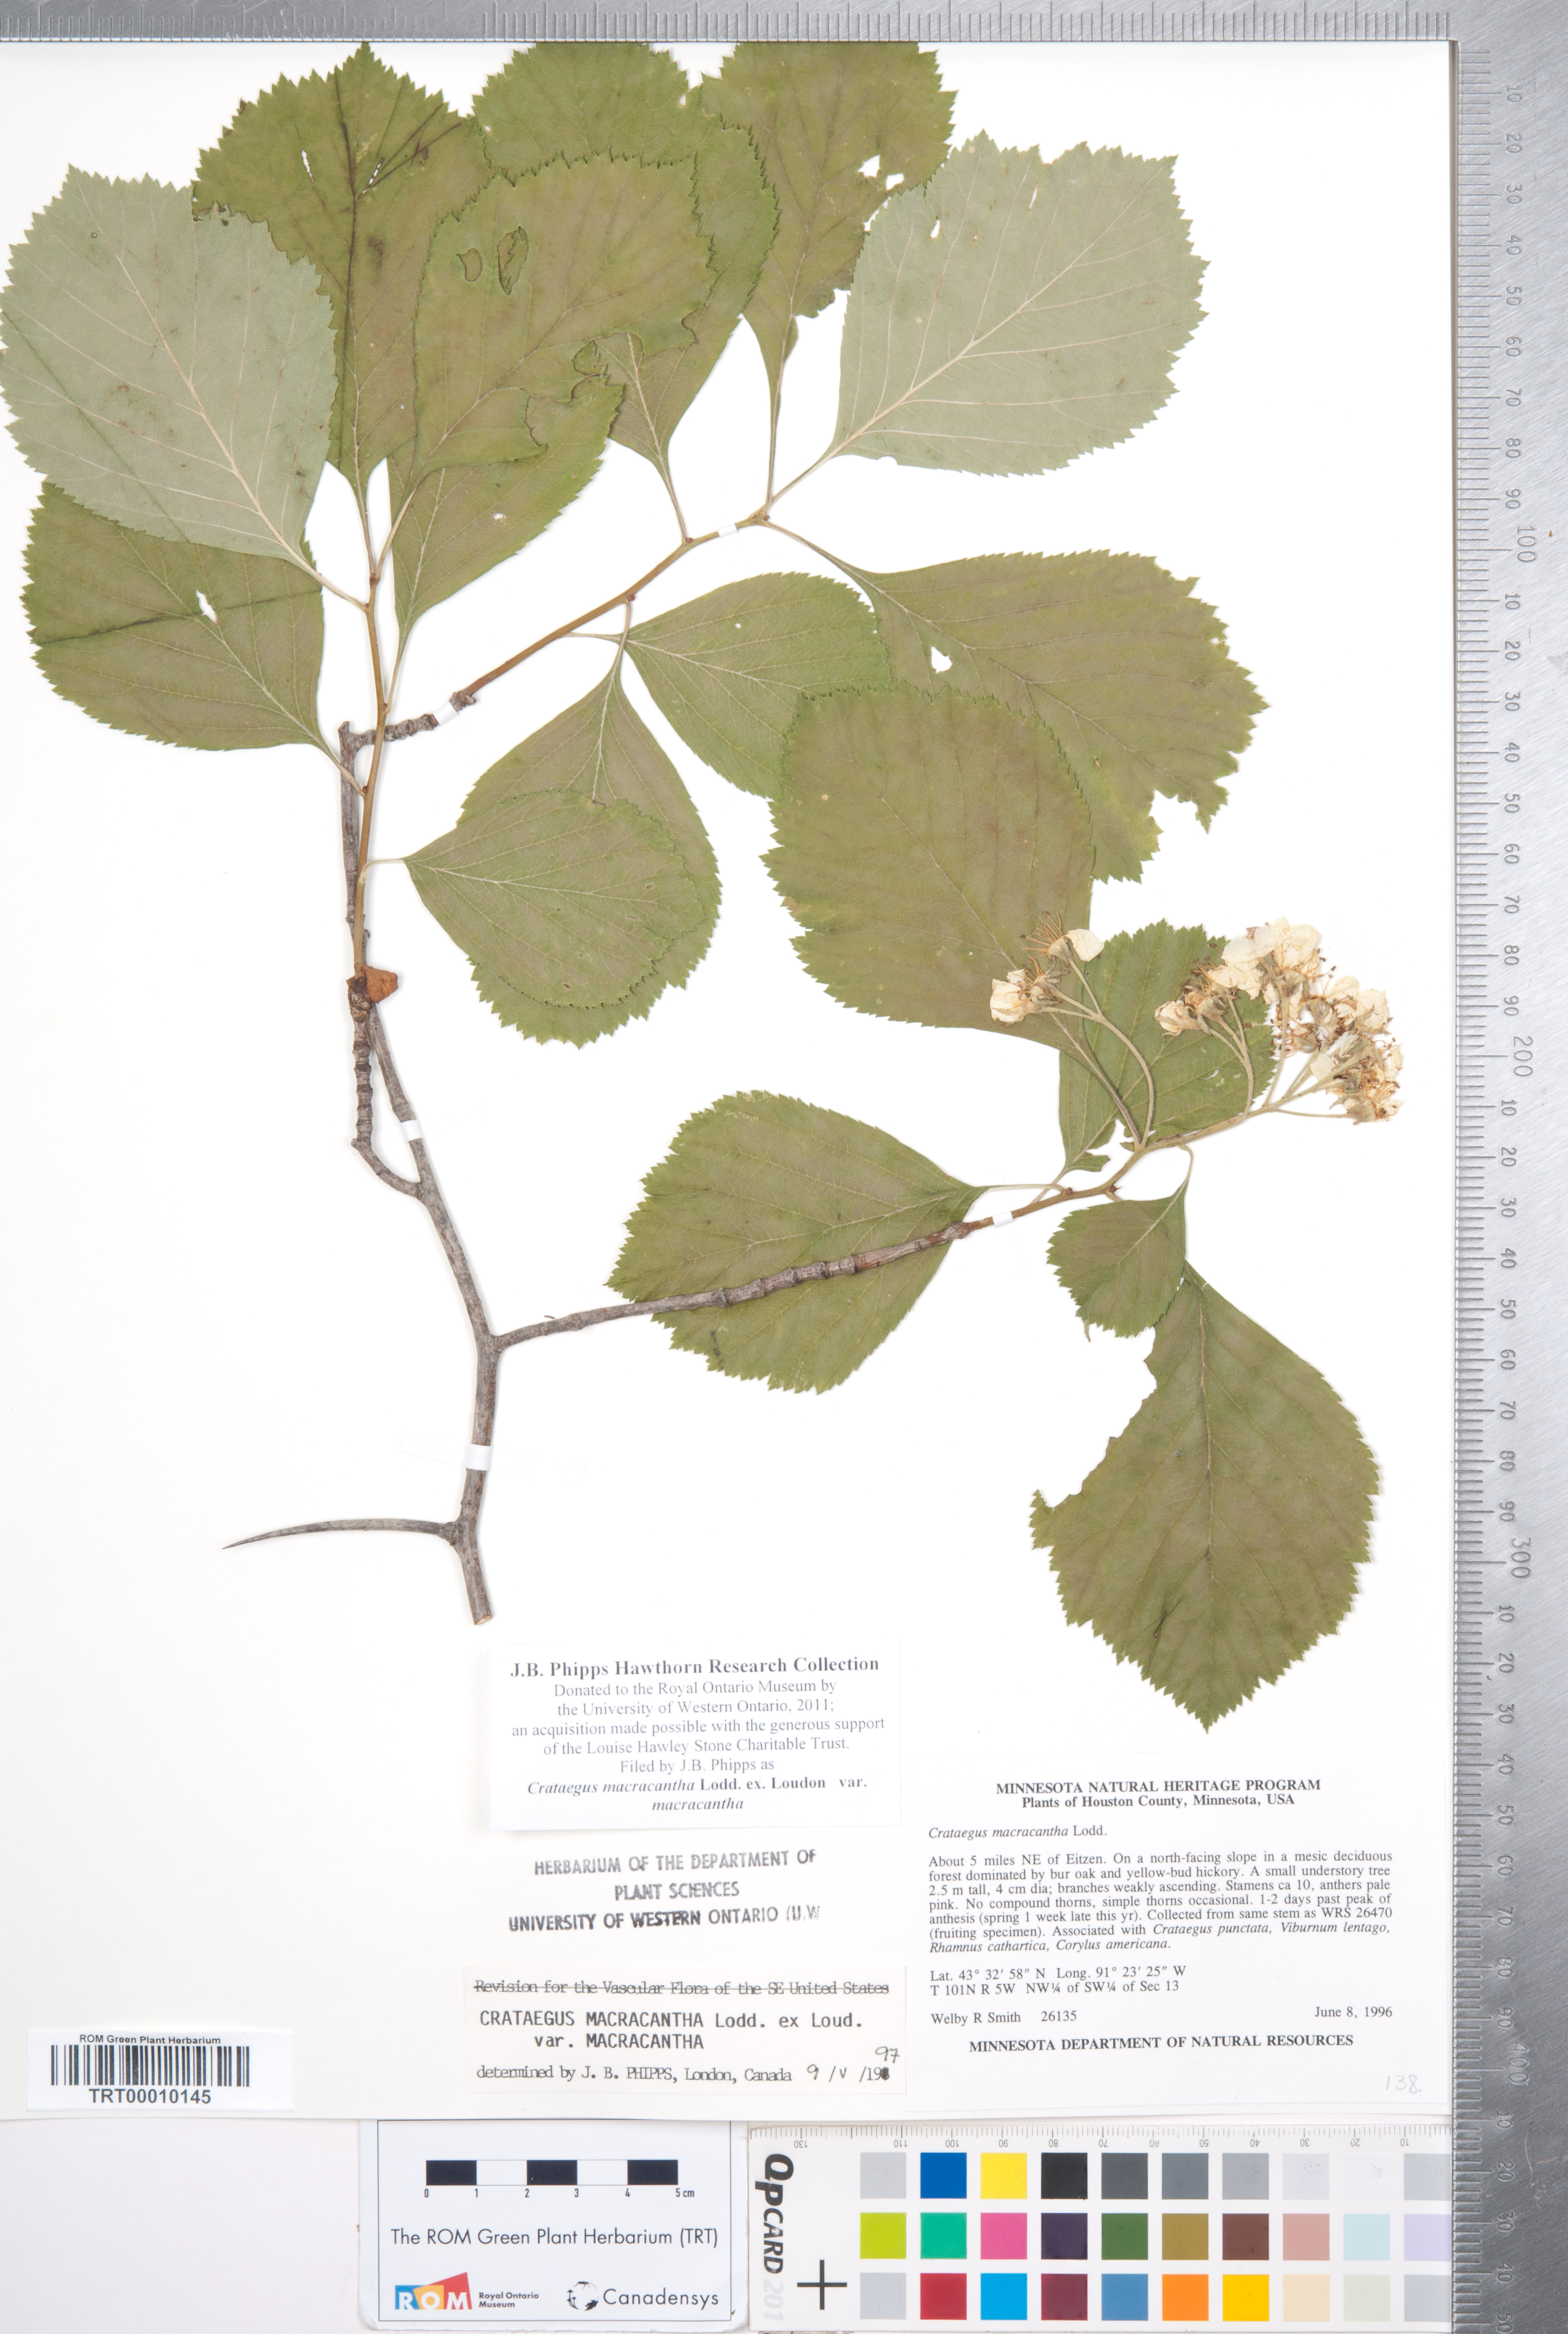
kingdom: Plantae
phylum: Tracheophyta
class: Magnoliopsida
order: Rosales
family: Rosaceae
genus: Crataegus
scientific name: Crataegus macracantha
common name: Large-thorn hawthorn
